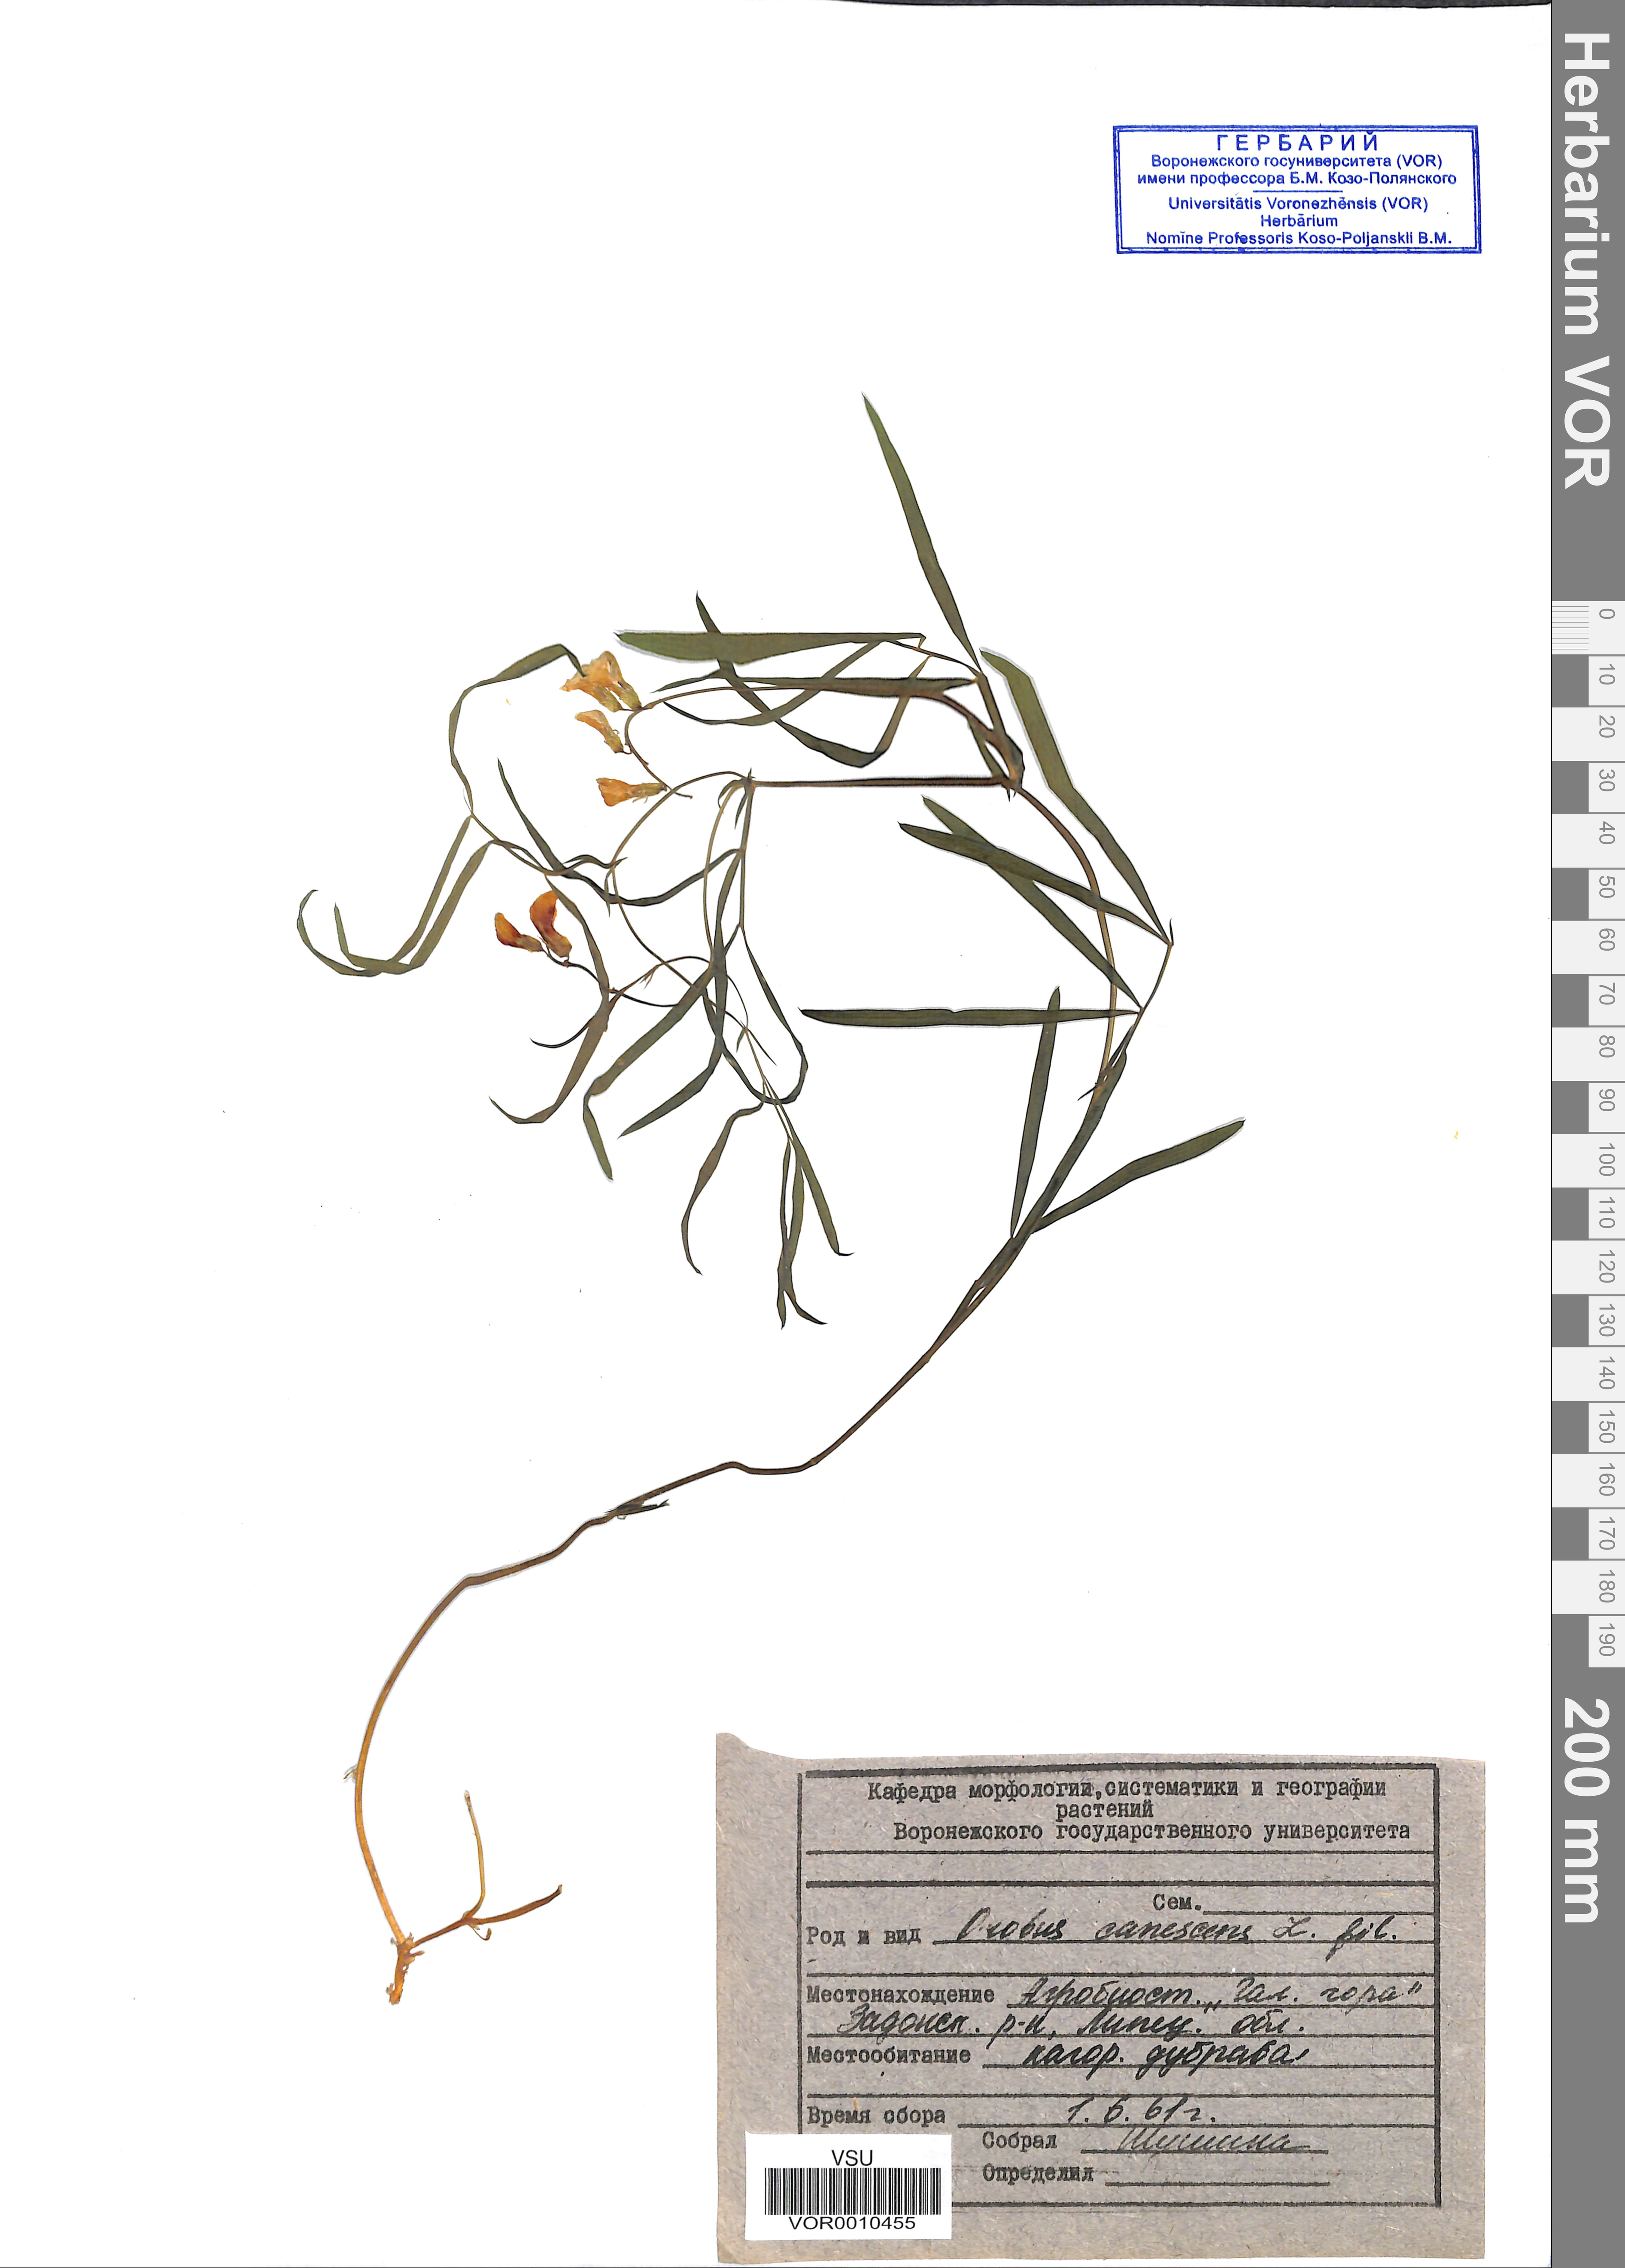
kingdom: Plantae
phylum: Tracheophyta
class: Magnoliopsida
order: Fabales
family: Fabaceae
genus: Lathyrus
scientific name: Lathyrus filiformis
